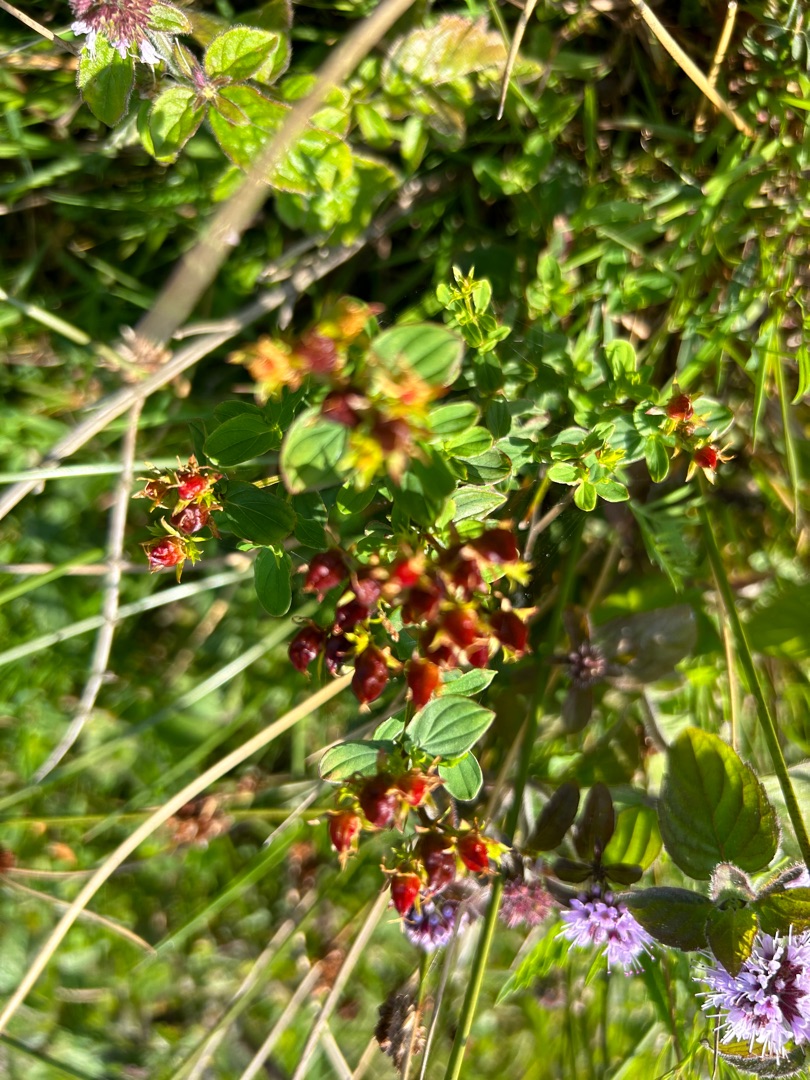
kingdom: Plantae
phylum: Tracheophyta
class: Magnoliopsida
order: Malpighiales
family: Hypericaceae
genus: Hypericum
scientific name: Hypericum tetrapterum
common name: Vinget perikon
